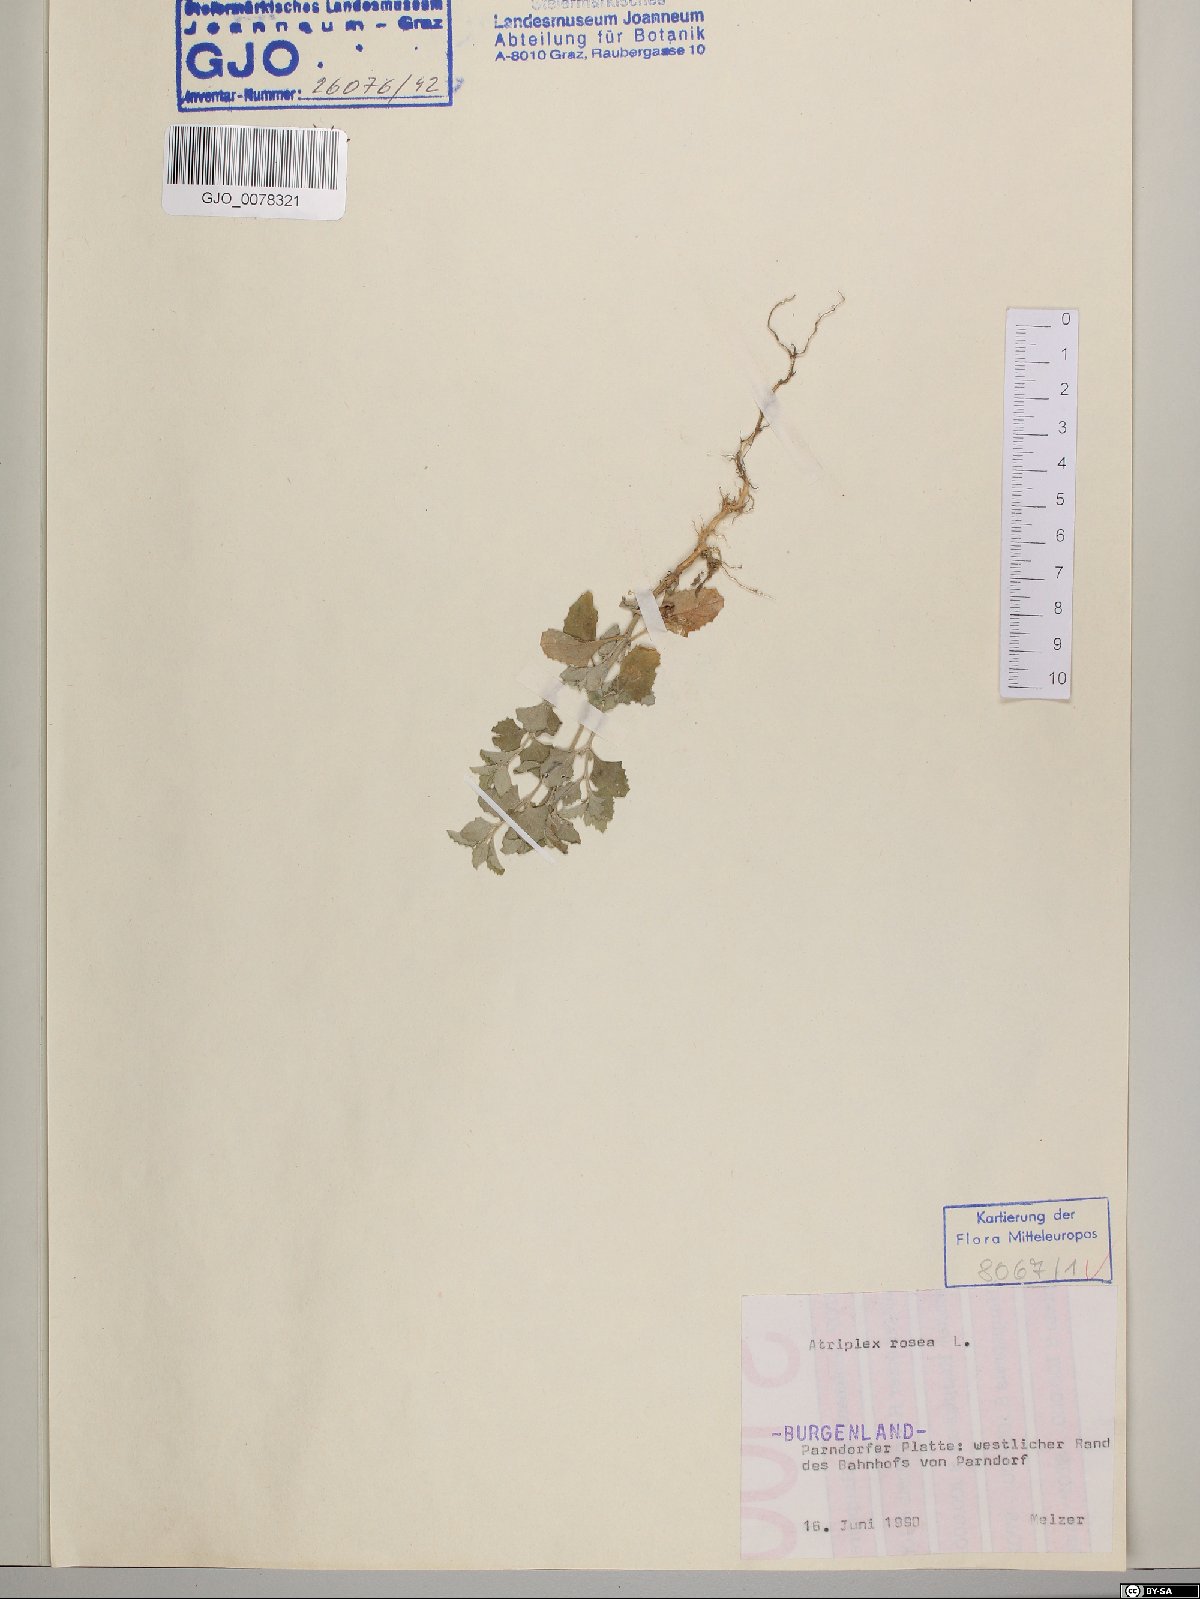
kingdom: Plantae
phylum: Tracheophyta
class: Magnoliopsida
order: Caryophyllales
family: Amaranthaceae
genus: Atriplex
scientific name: Atriplex rosea
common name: Tumbling saltweed
